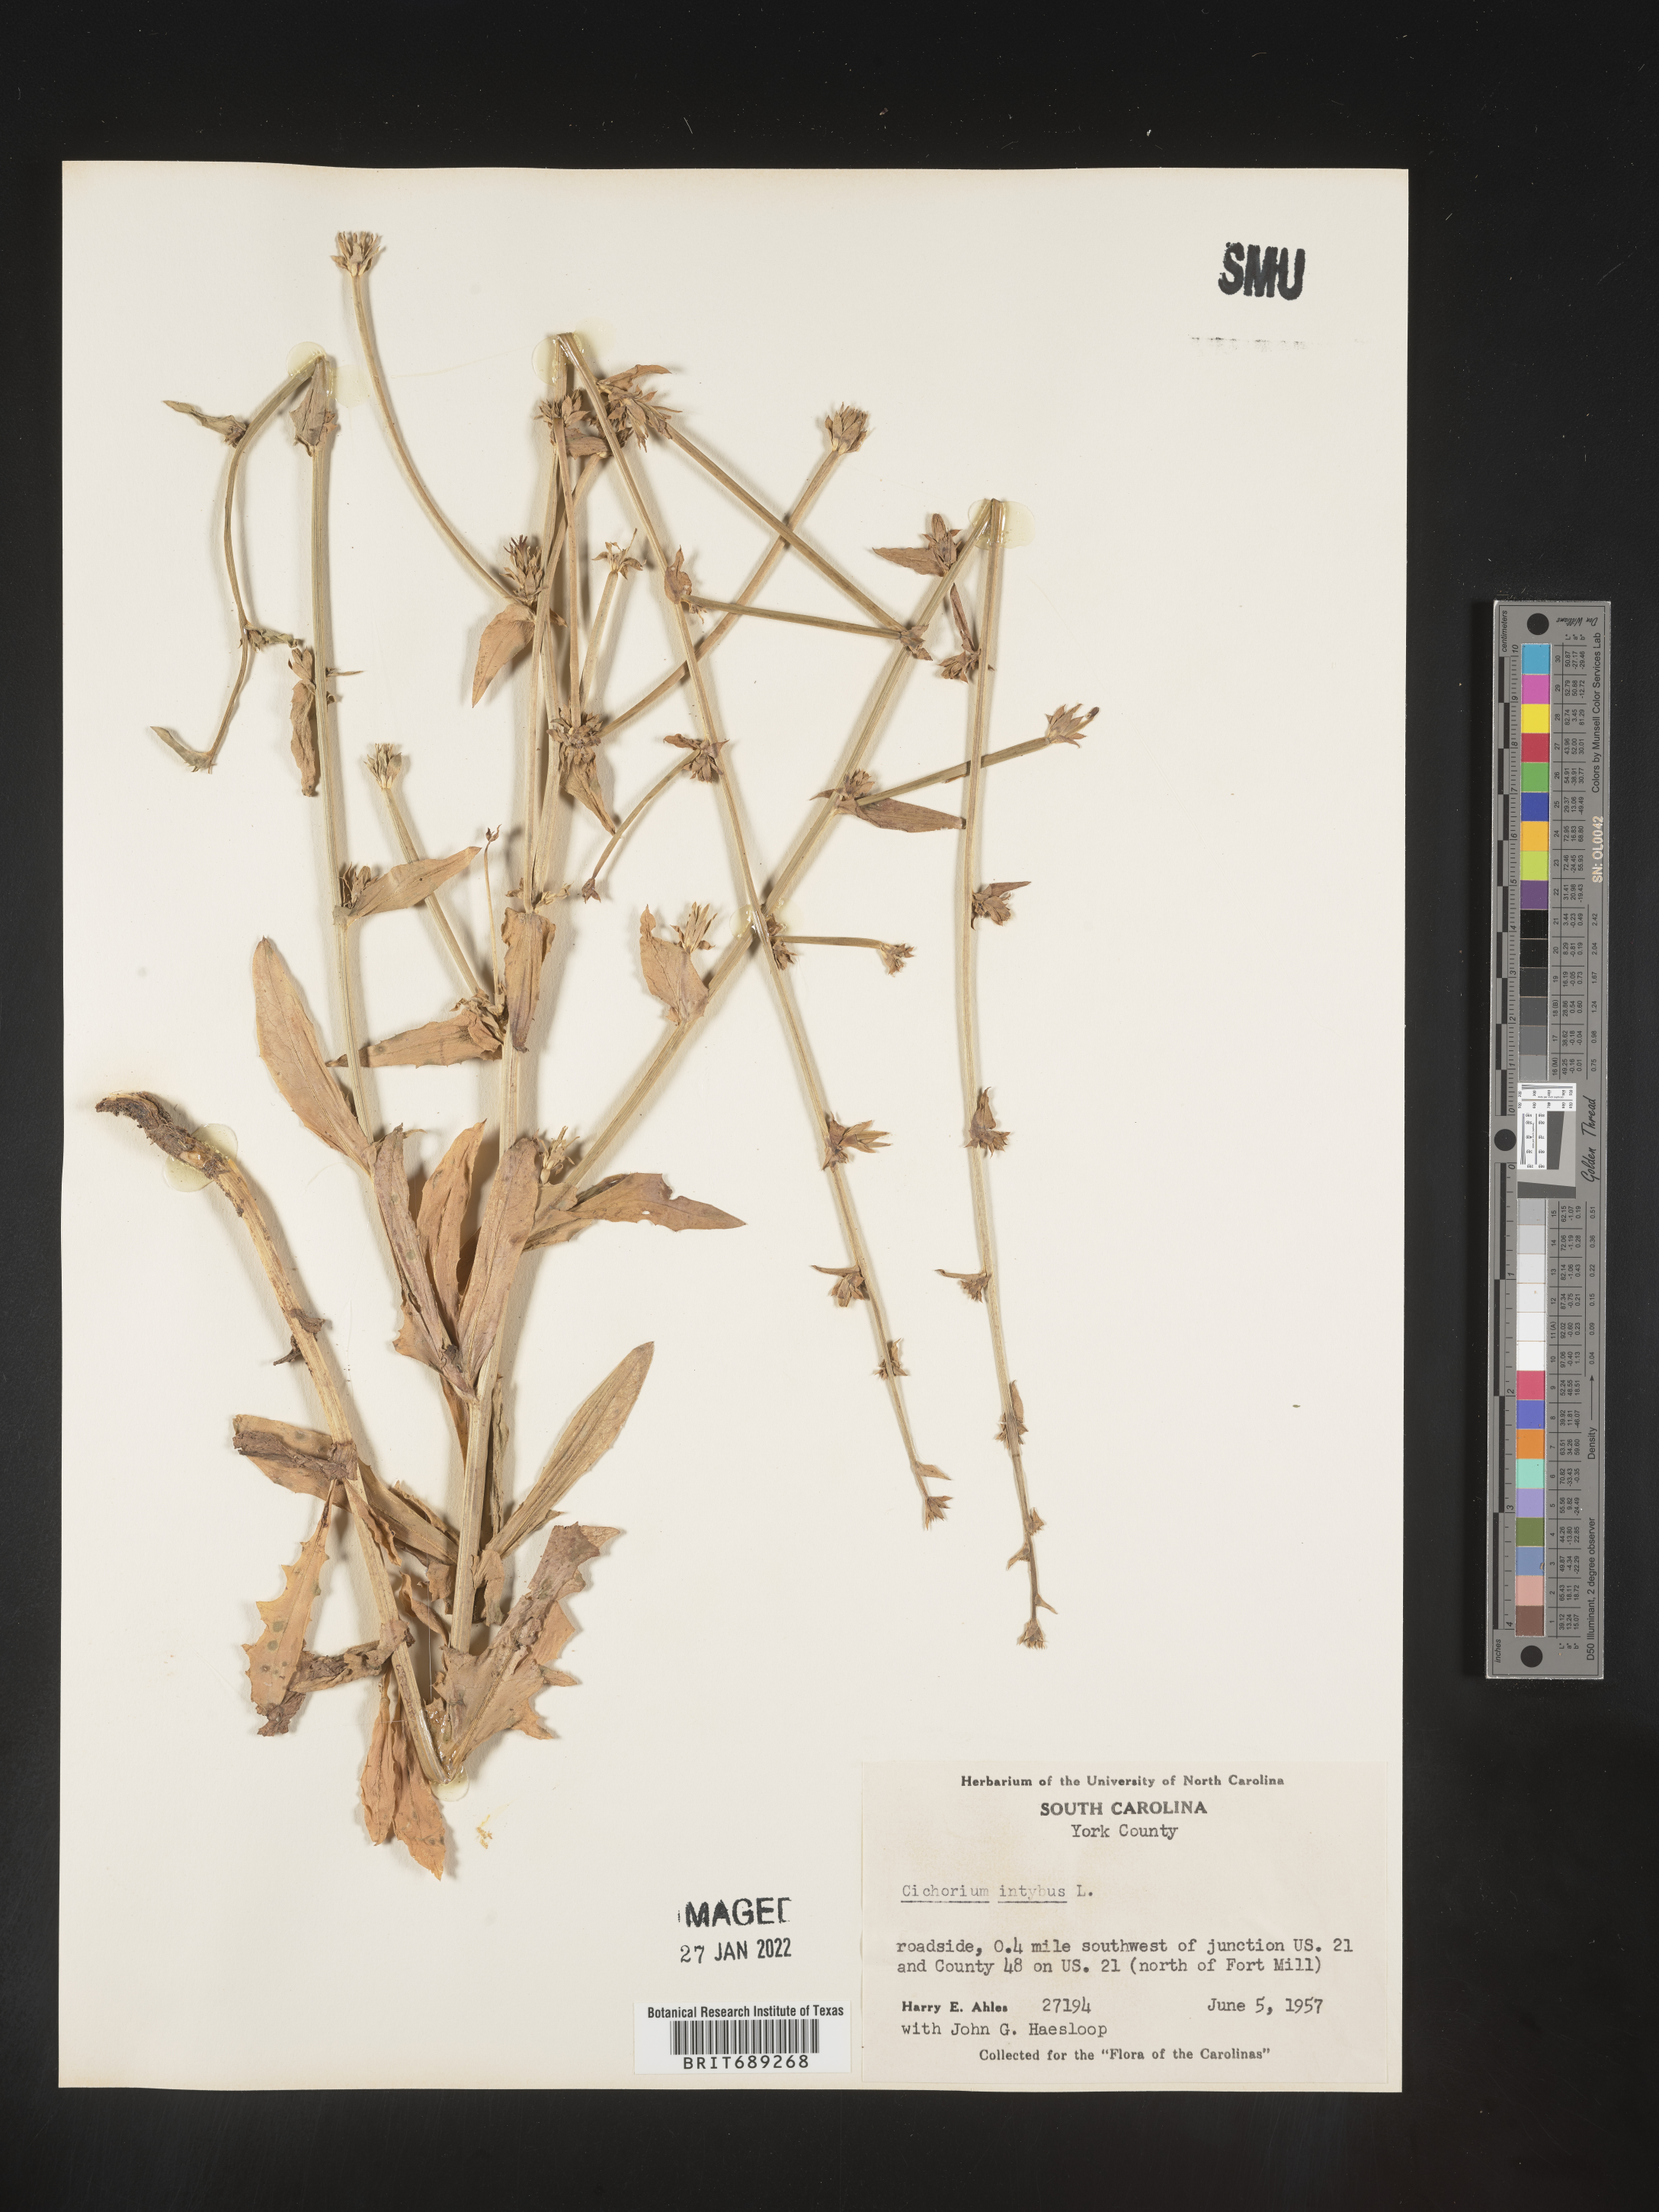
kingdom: Plantae
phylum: Tracheophyta
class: Magnoliopsida
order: Asterales
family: Asteraceae
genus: Cichorium
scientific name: Cichorium intybus
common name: Chicory
